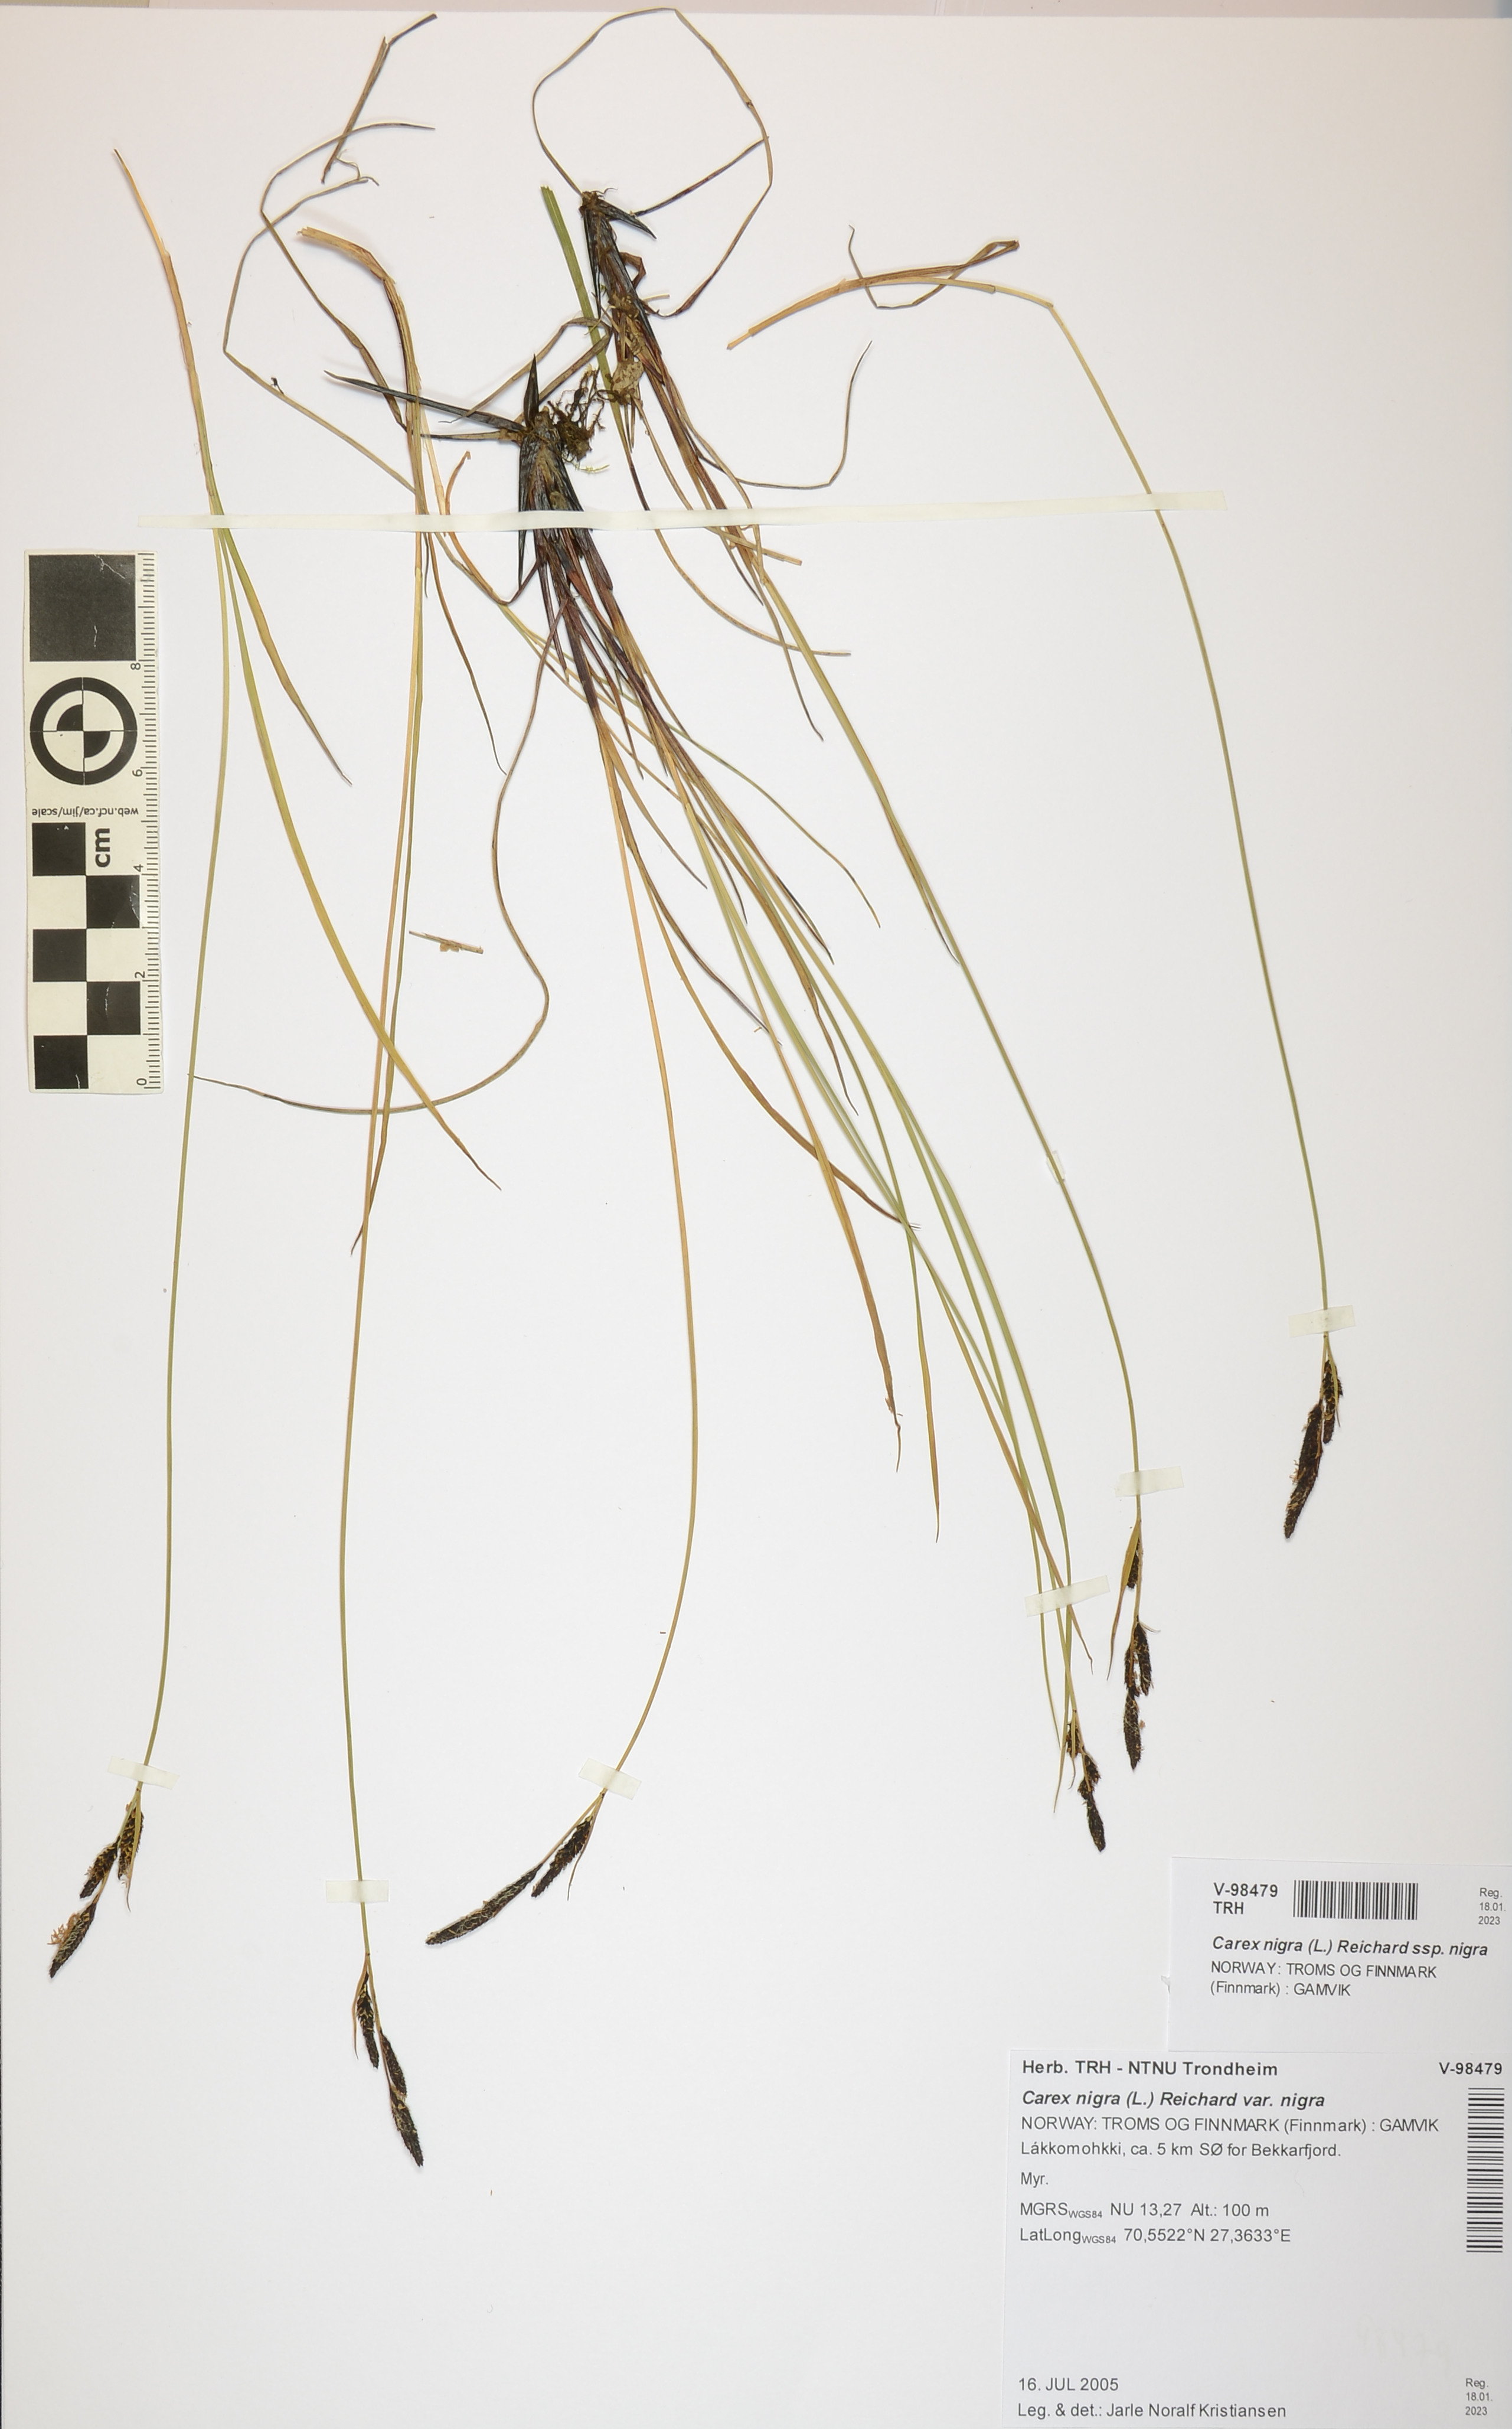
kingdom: Plantae
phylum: Tracheophyta
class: Liliopsida
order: Poales
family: Cyperaceae
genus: Carex
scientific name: Carex nigra
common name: Common sedge
